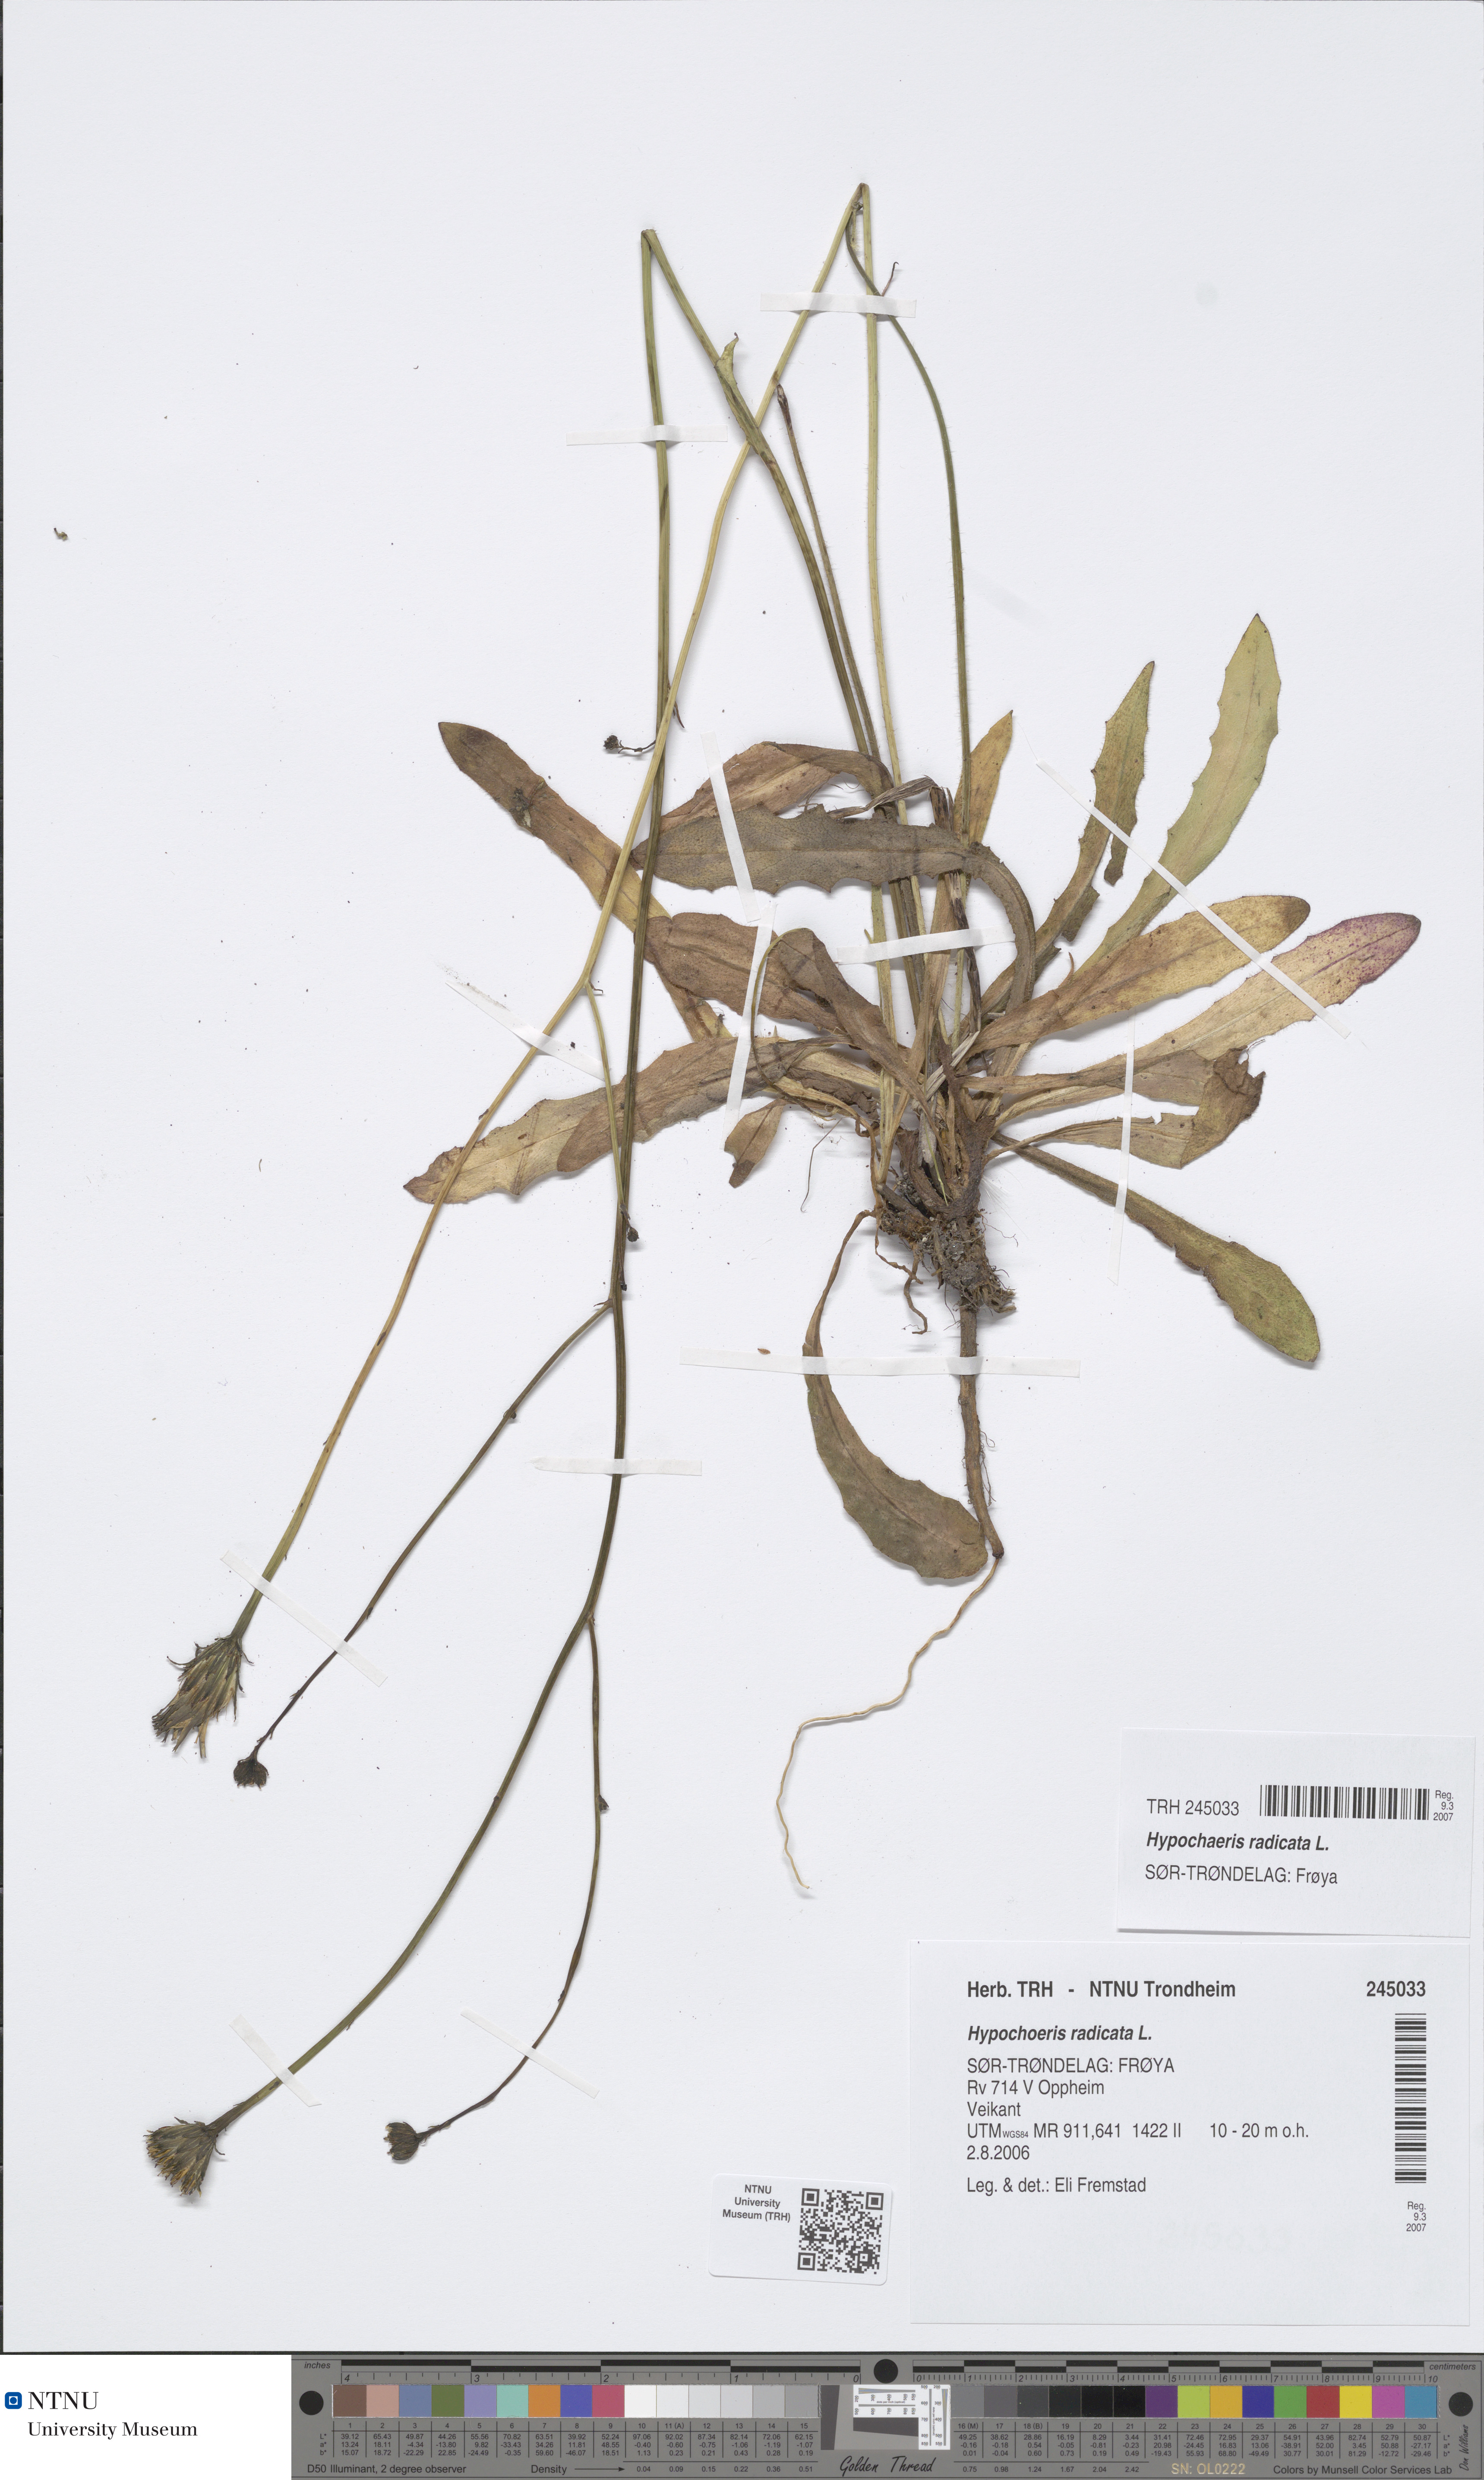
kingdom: Plantae
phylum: Tracheophyta
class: Magnoliopsida
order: Asterales
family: Asteraceae
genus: Hypochaeris
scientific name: Hypochaeris radicata
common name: Flatweed
